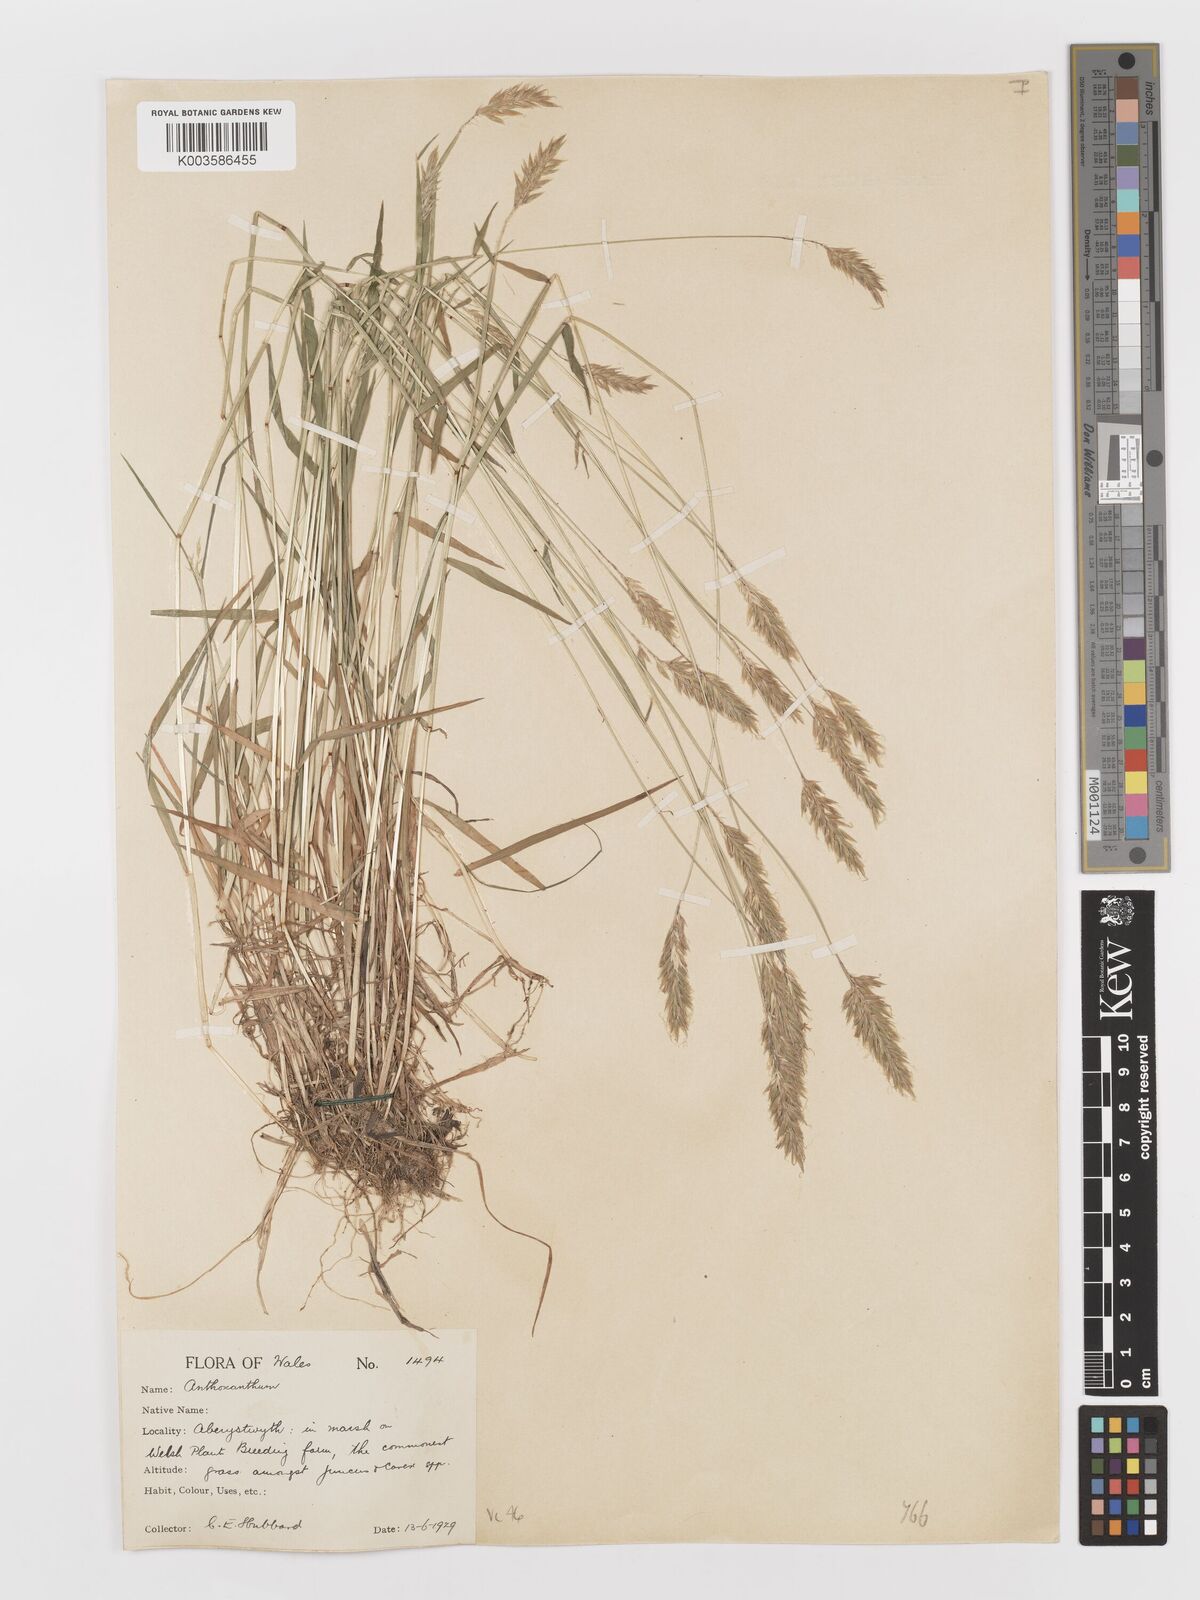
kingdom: Plantae
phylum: Tracheophyta
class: Liliopsida
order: Poales
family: Poaceae
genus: Anthoxanthum
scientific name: Anthoxanthum odoratum
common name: Sweet vernalgrass
